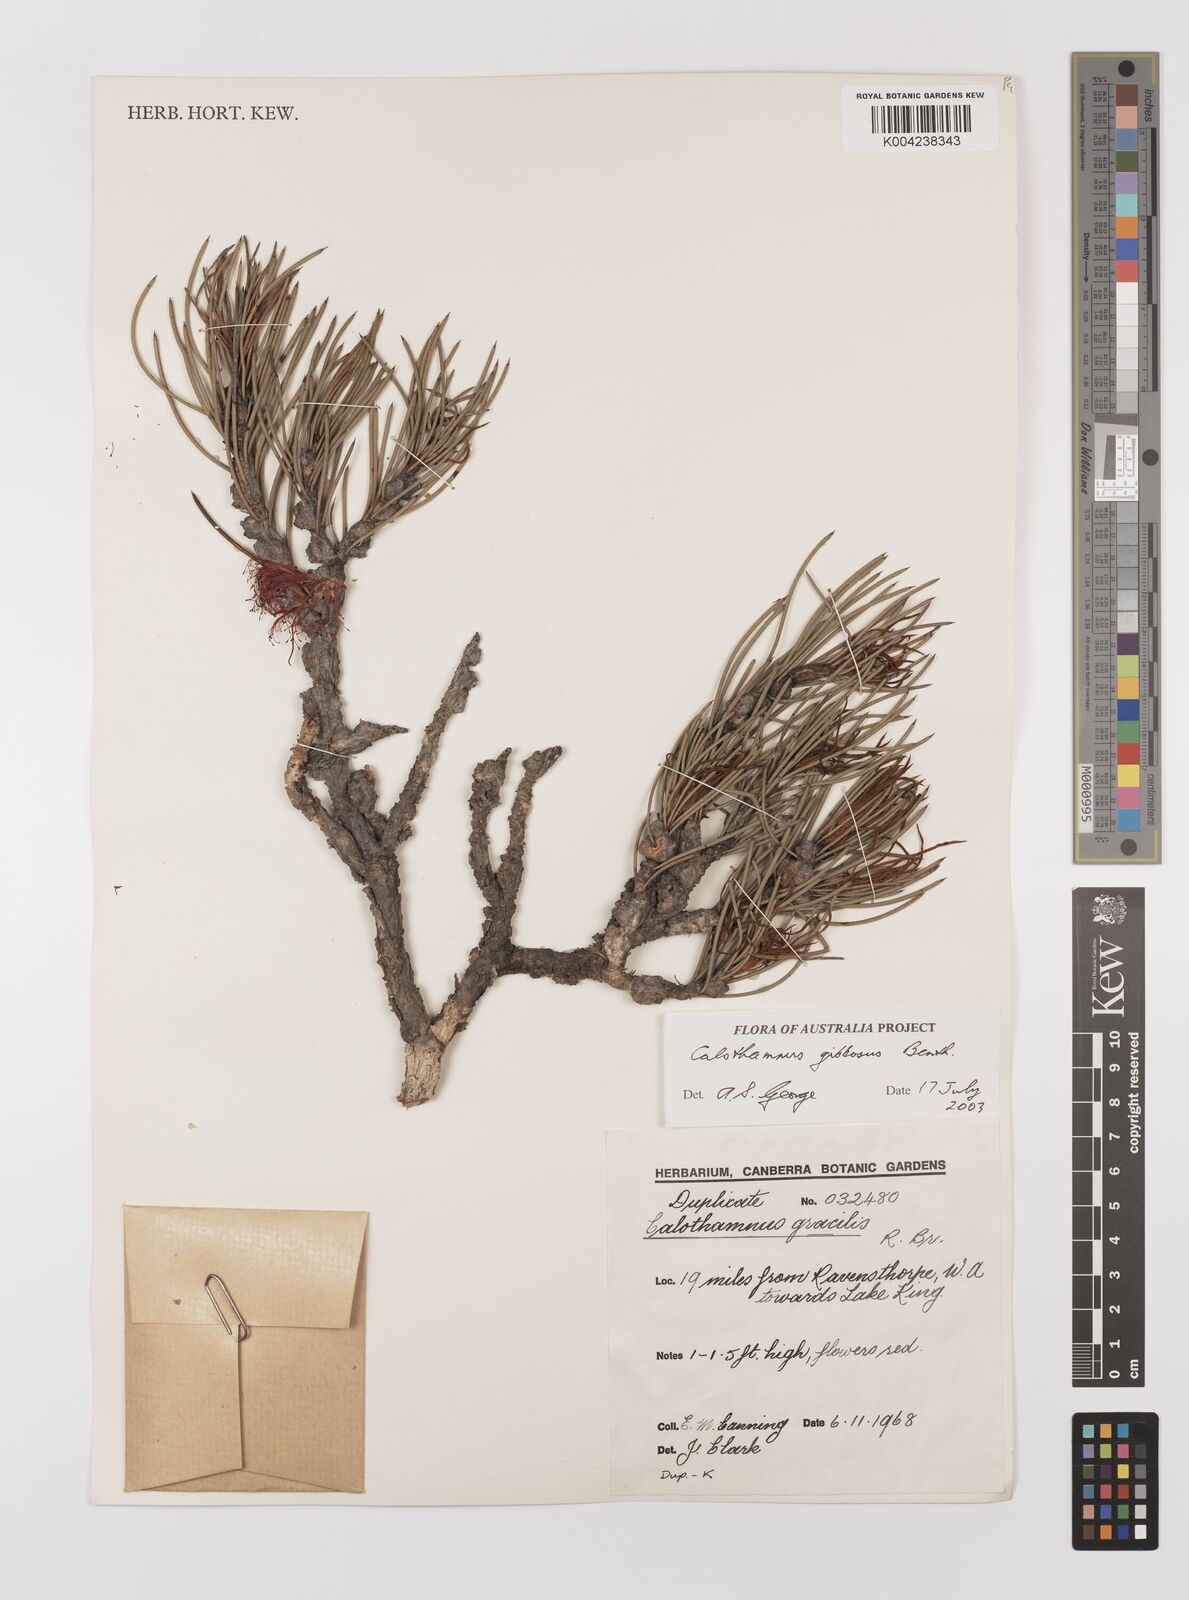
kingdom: Plantae
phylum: Tracheophyta
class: Magnoliopsida
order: Myrtales
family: Myrtaceae
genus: Melaleuca
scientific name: Melaleuca protumida
